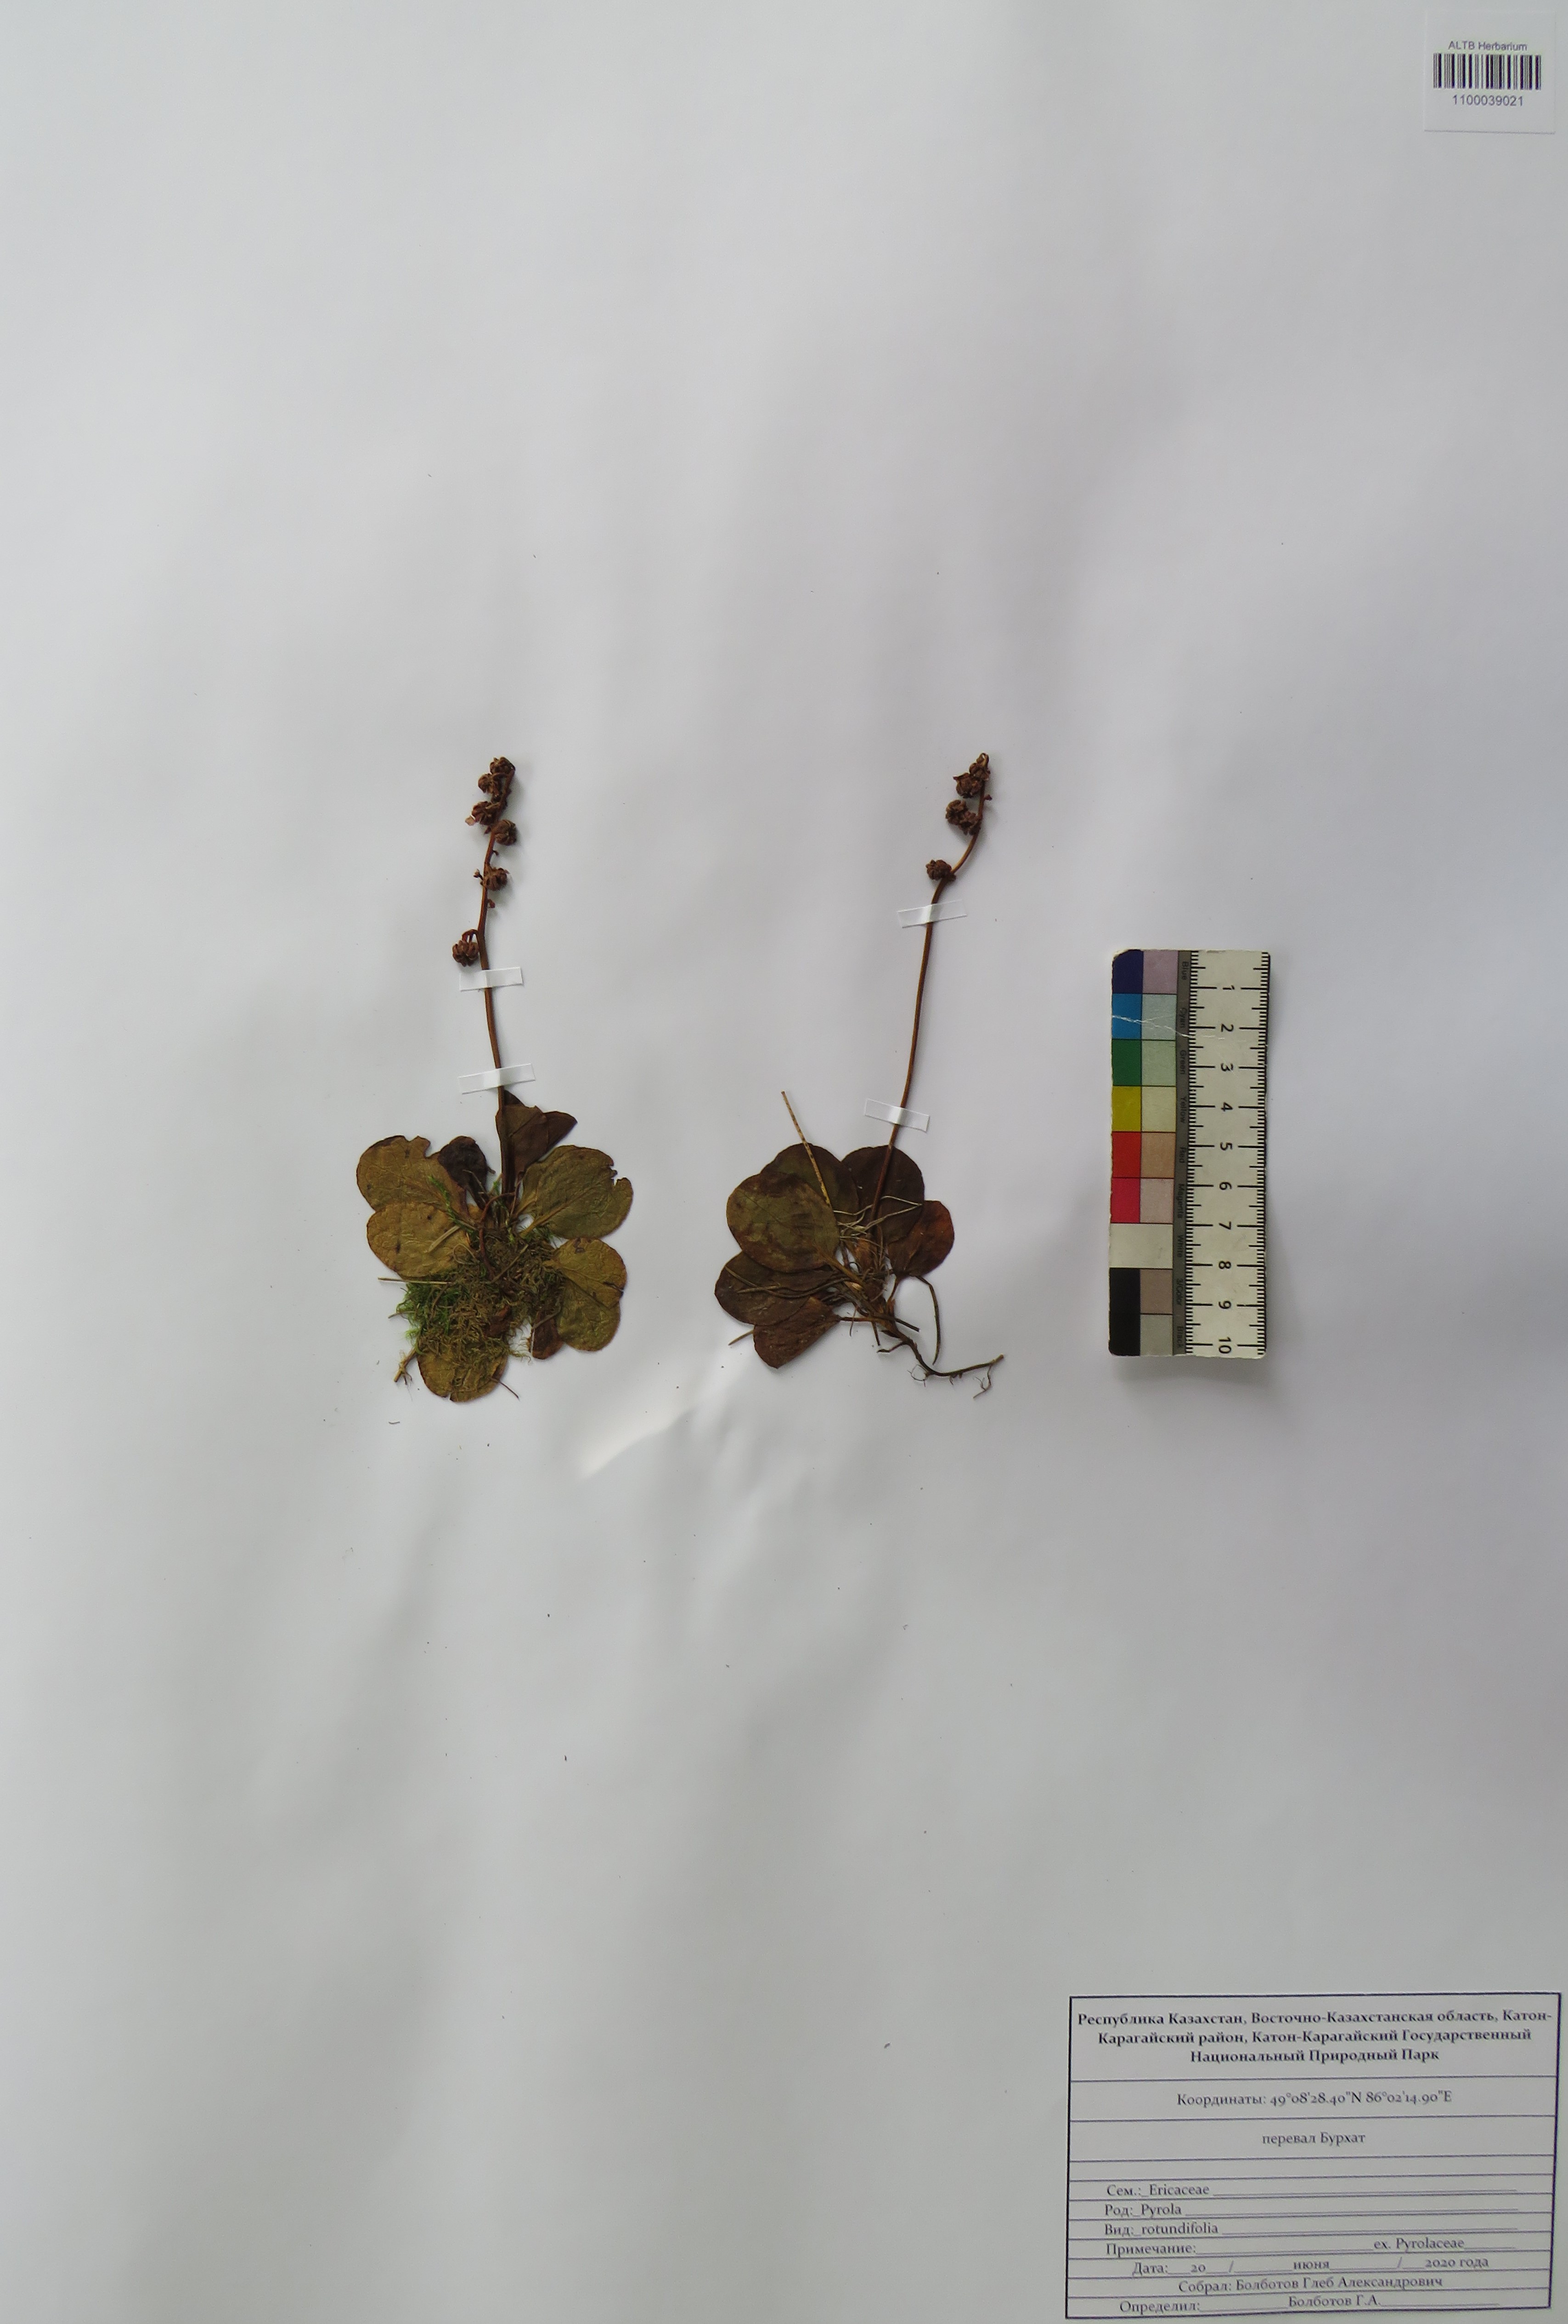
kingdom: Plantae
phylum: Tracheophyta
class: Magnoliopsida
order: Ericales
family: Ericaceae
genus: Pyrola
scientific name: Pyrola rotundifolia
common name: Round-leaved wintergreen
